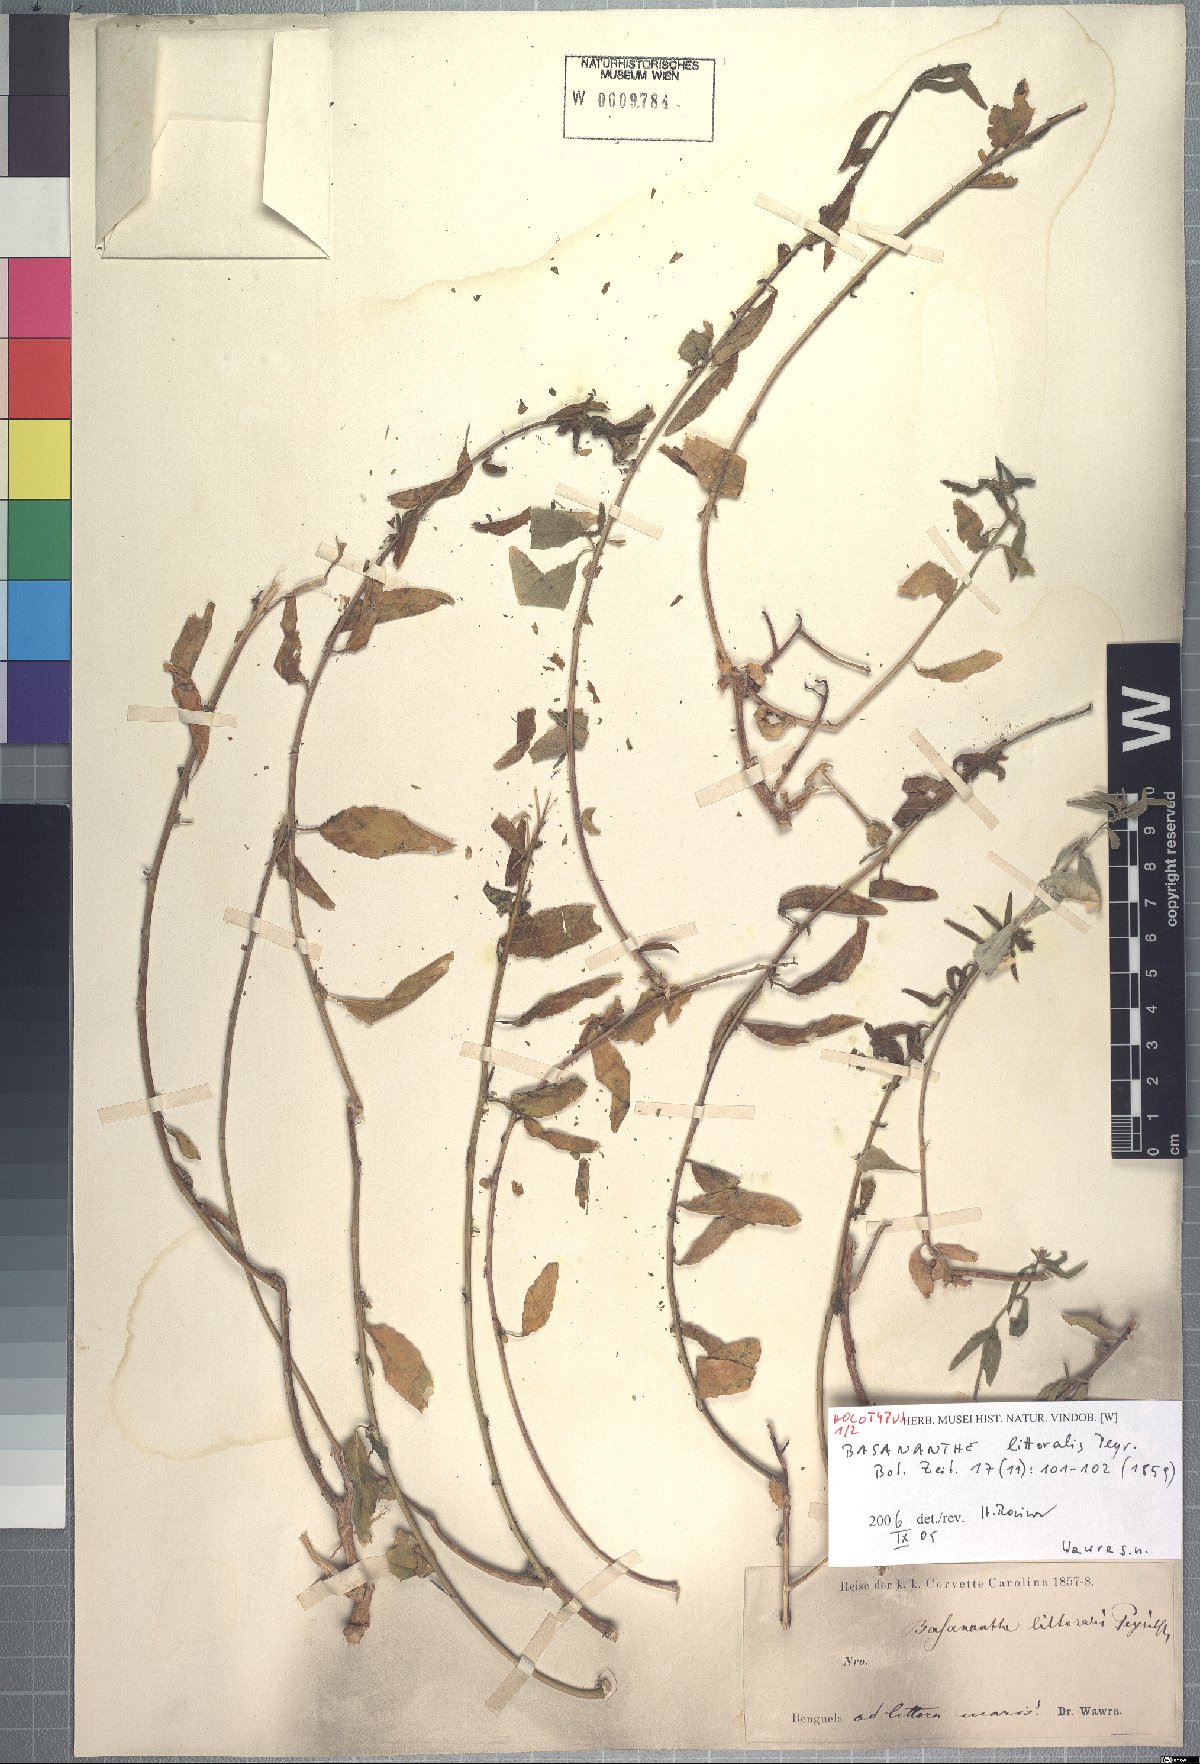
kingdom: Plantae
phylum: Tracheophyta
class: Magnoliopsida
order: Malpighiales
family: Passifloraceae
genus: Basananthe
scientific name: Basananthe littoralis
